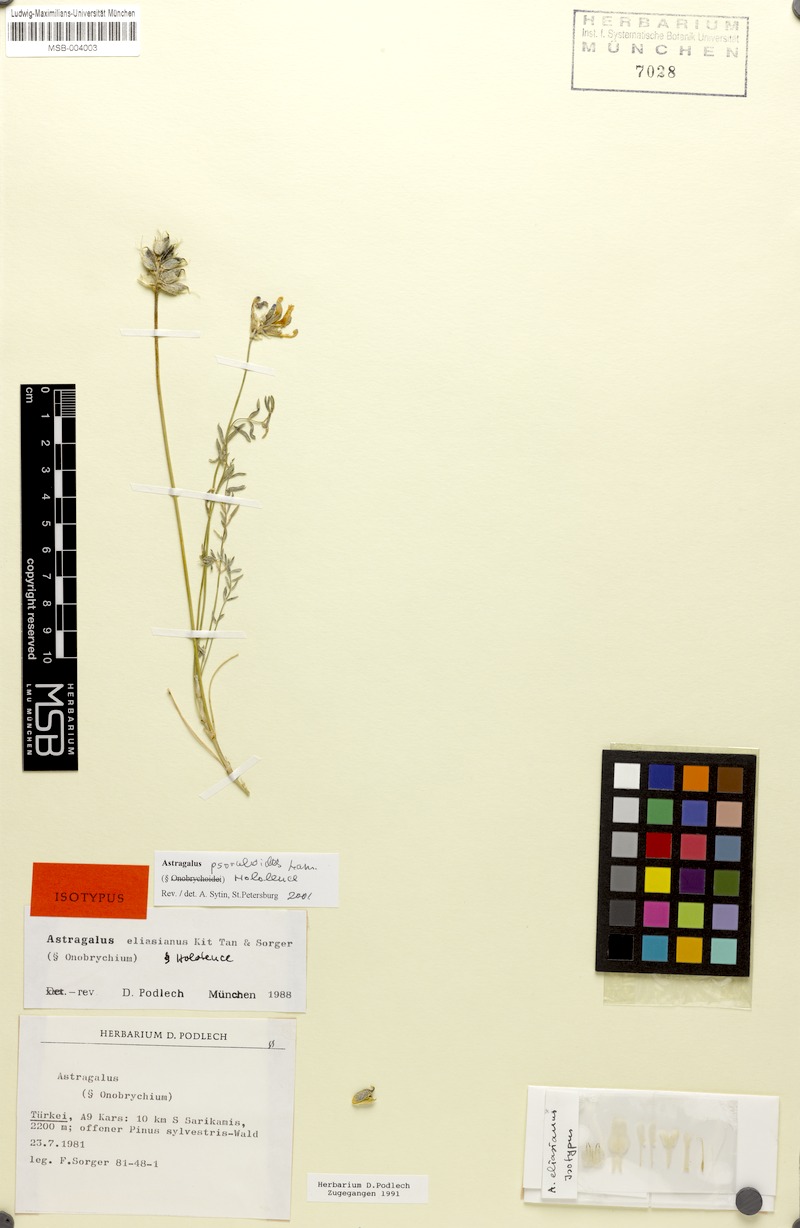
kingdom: Plantae
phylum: Tracheophyta
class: Magnoliopsida
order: Fabales
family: Fabaceae
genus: Astragalus
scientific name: Astragalus psoraloides
